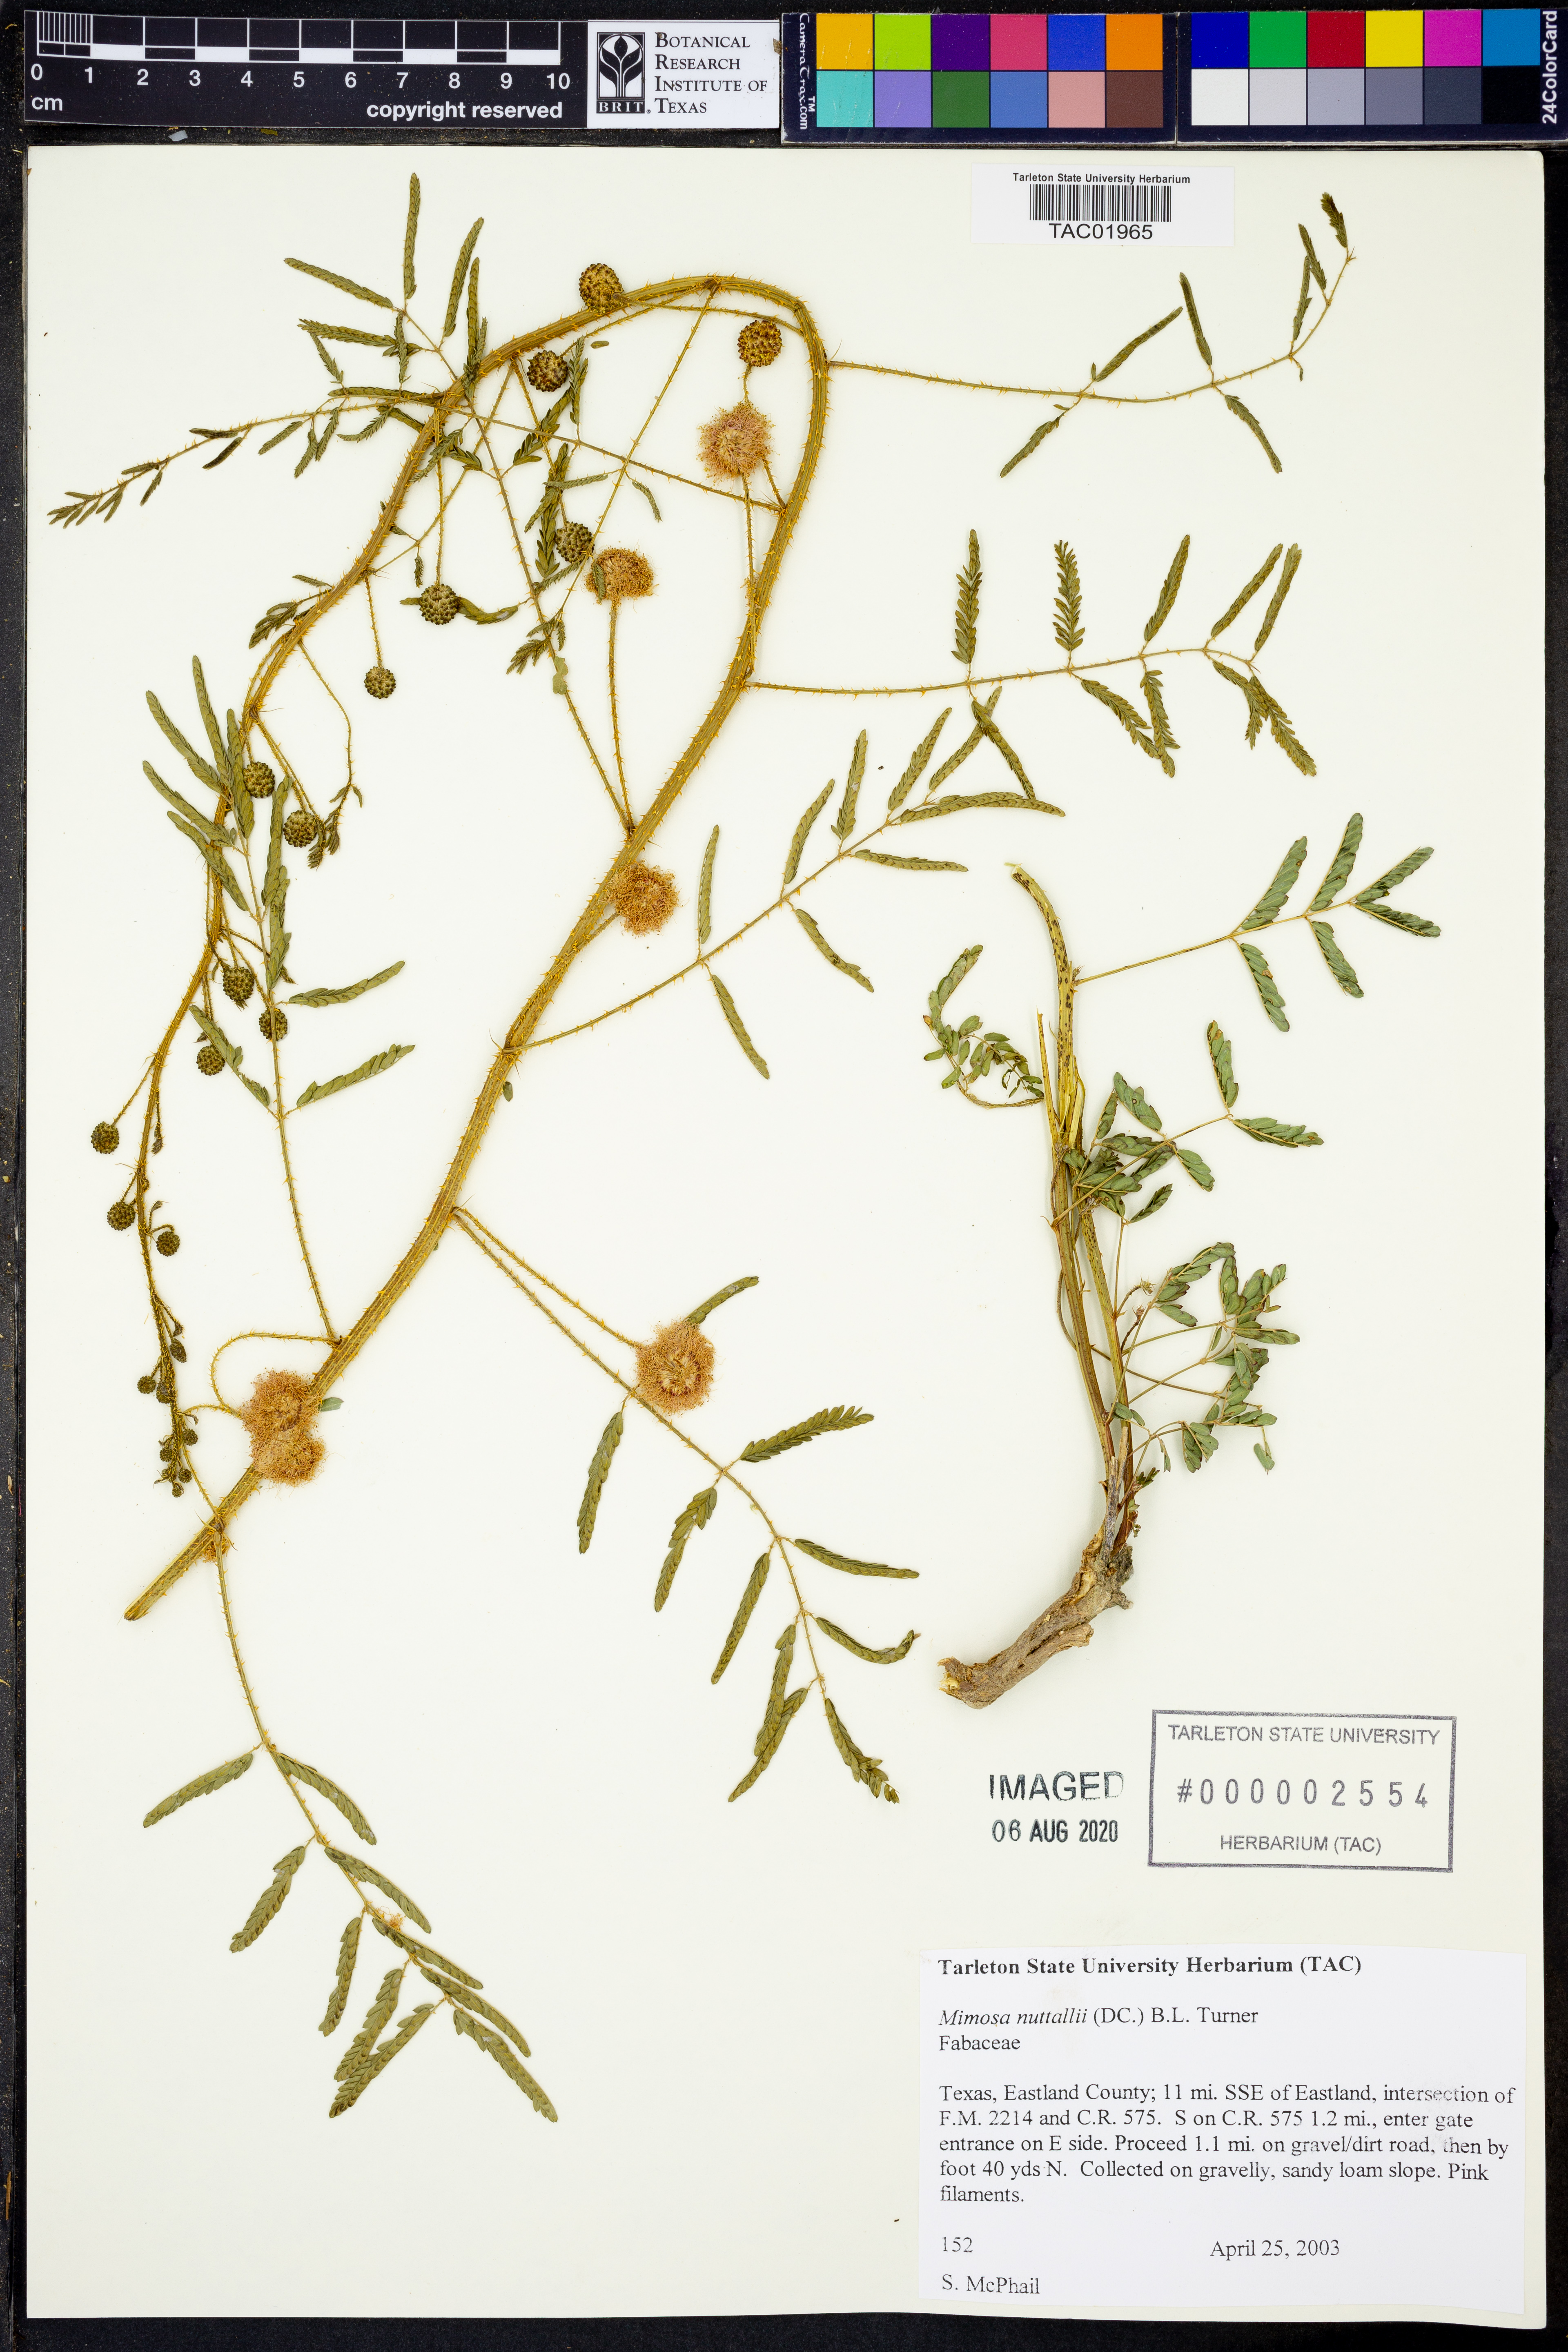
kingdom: Plantae
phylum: Tracheophyta
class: Magnoliopsida
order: Fabales
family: Fabaceae
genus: Mimosa
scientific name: Mimosa quadrivalvis
